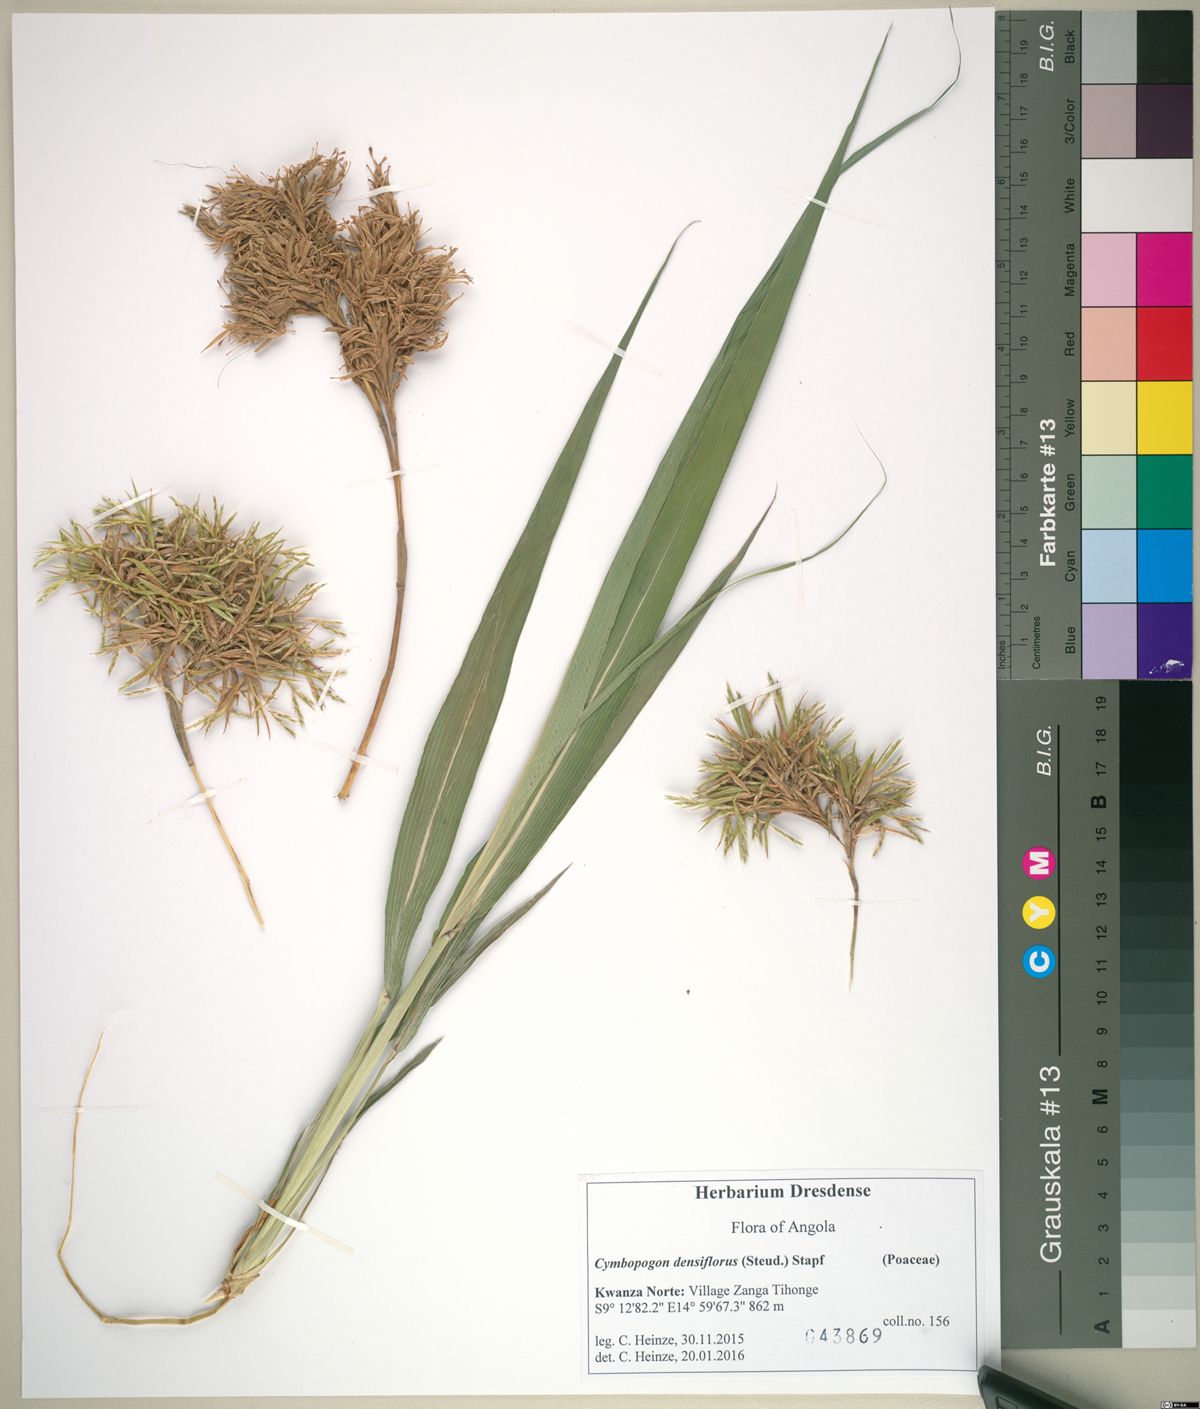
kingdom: Plantae
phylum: Tracheophyta
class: Liliopsida
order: Poales
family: Poaceae
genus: Cymbopogon
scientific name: Cymbopogon densiflorus
